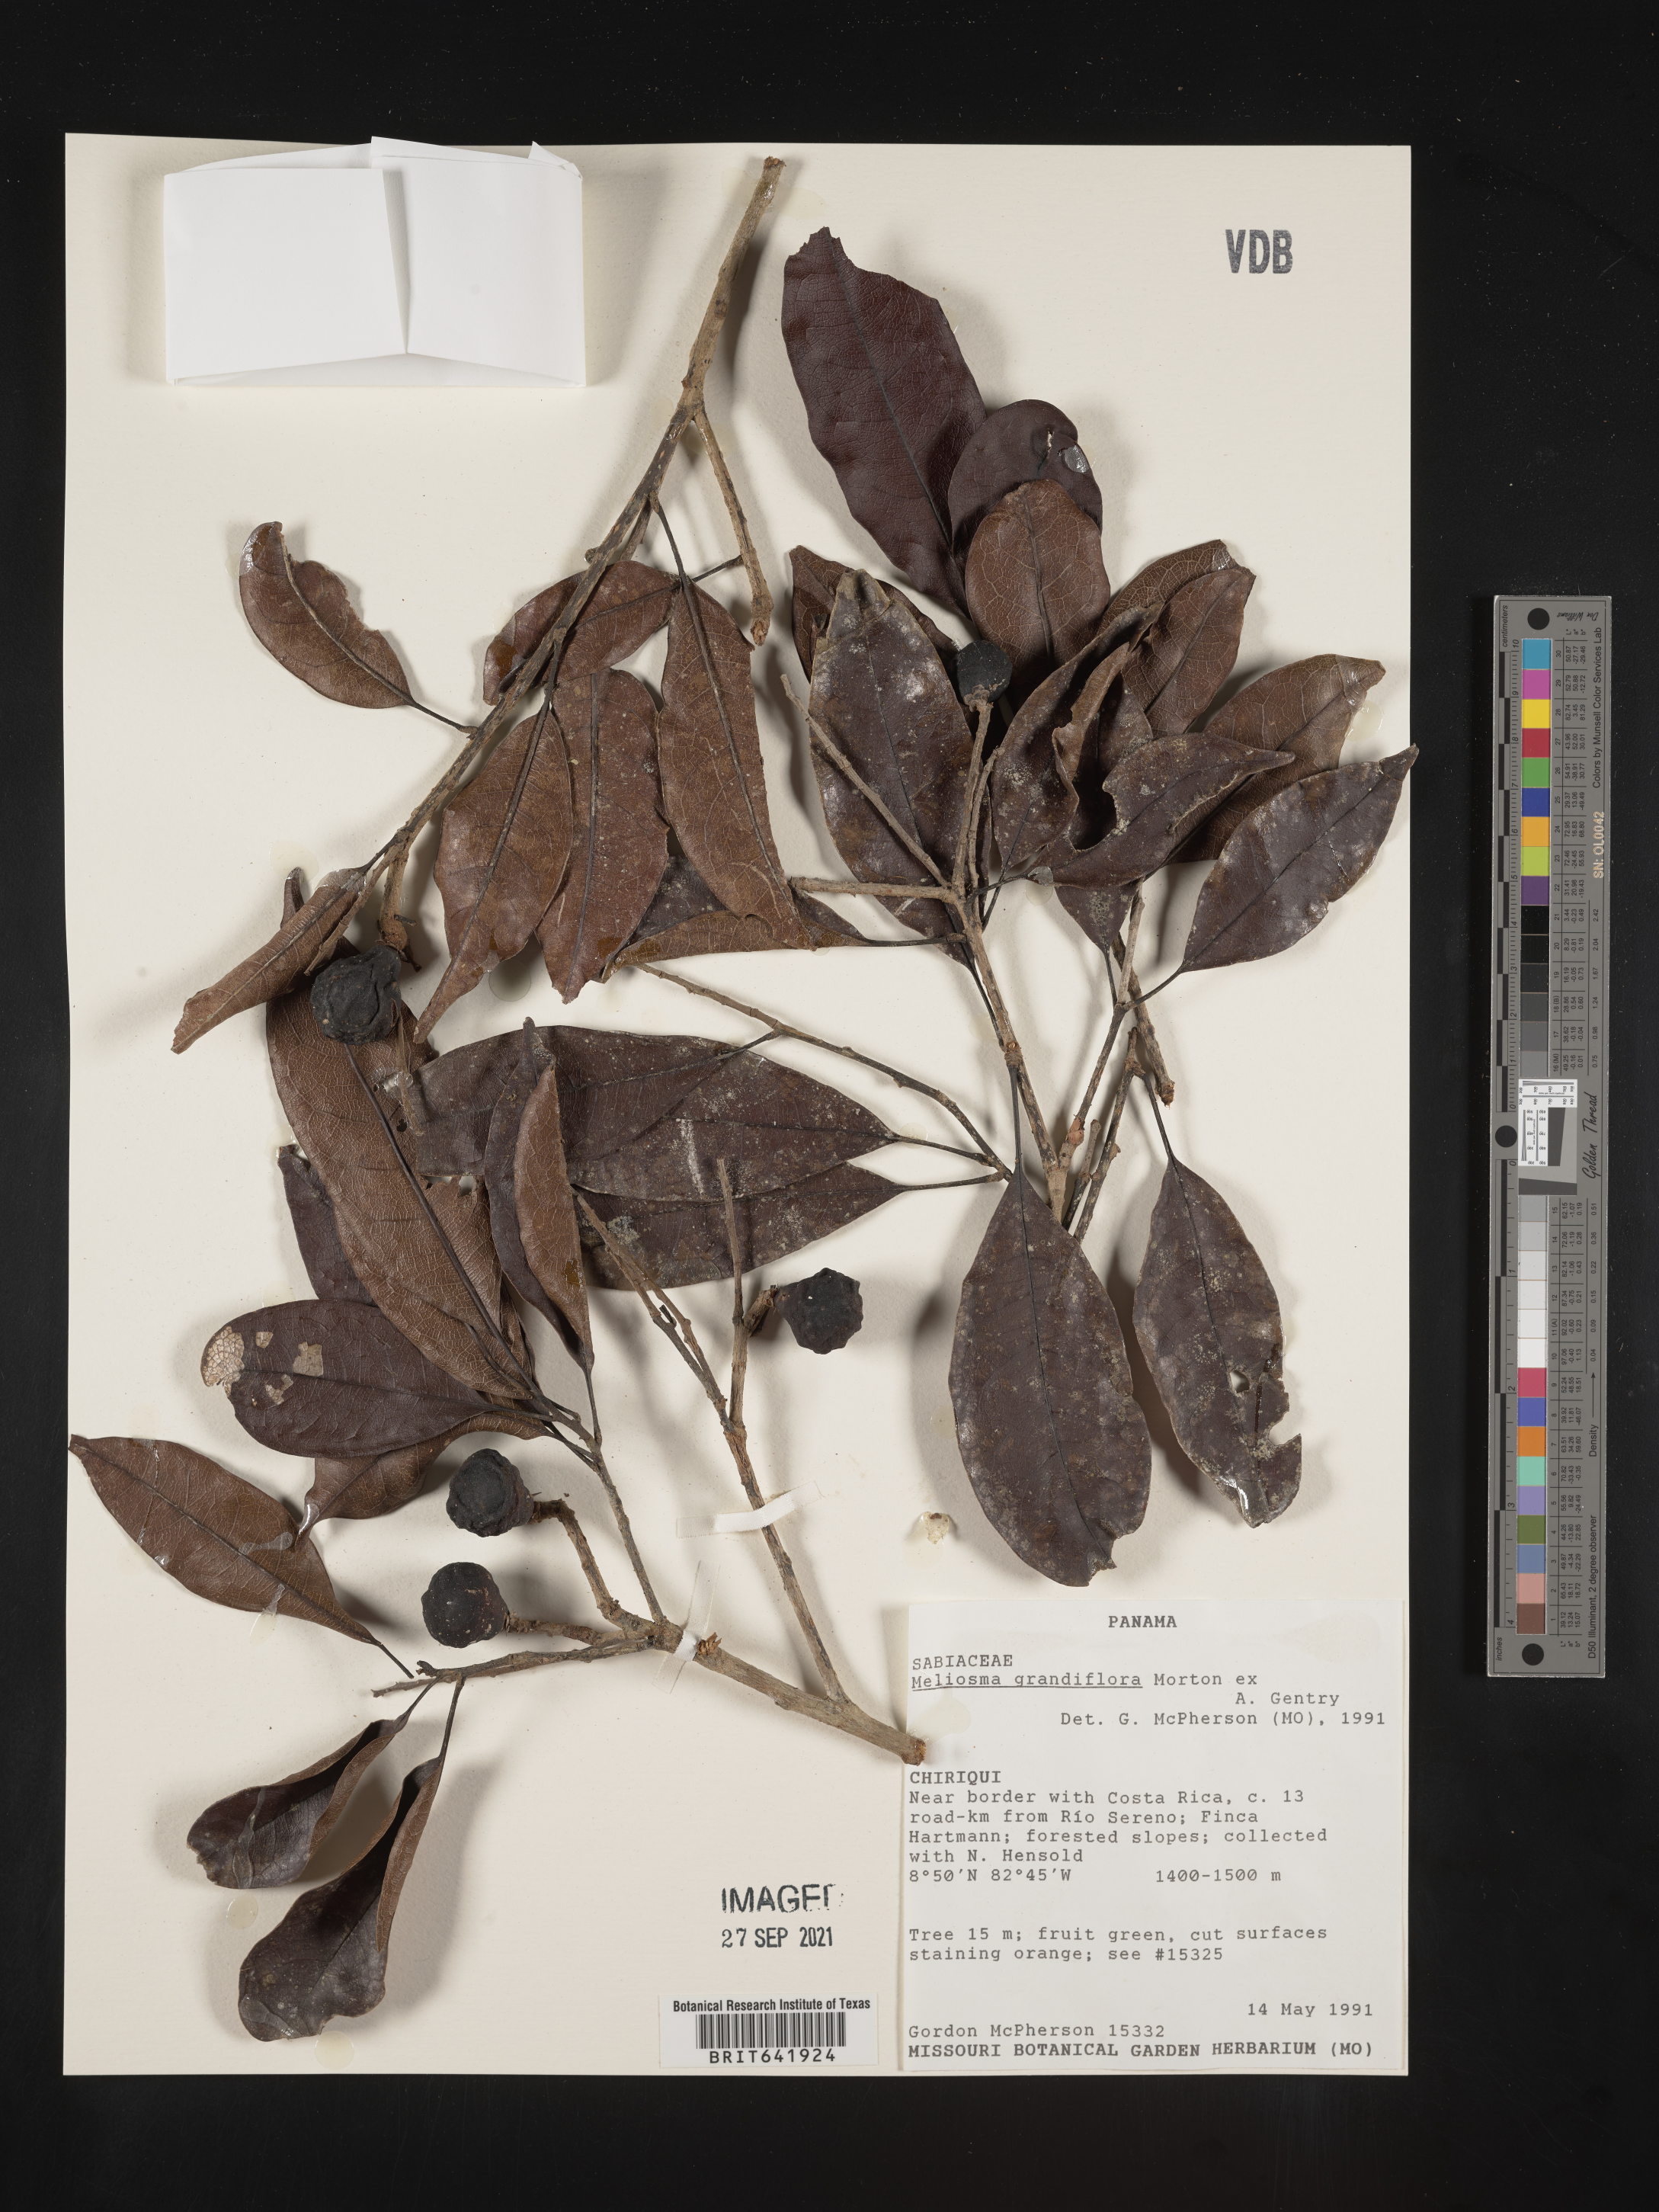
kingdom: Plantae
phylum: Tracheophyta
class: Magnoliopsida
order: Proteales
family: Sabiaceae
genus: Meliosma
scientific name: Meliosma
